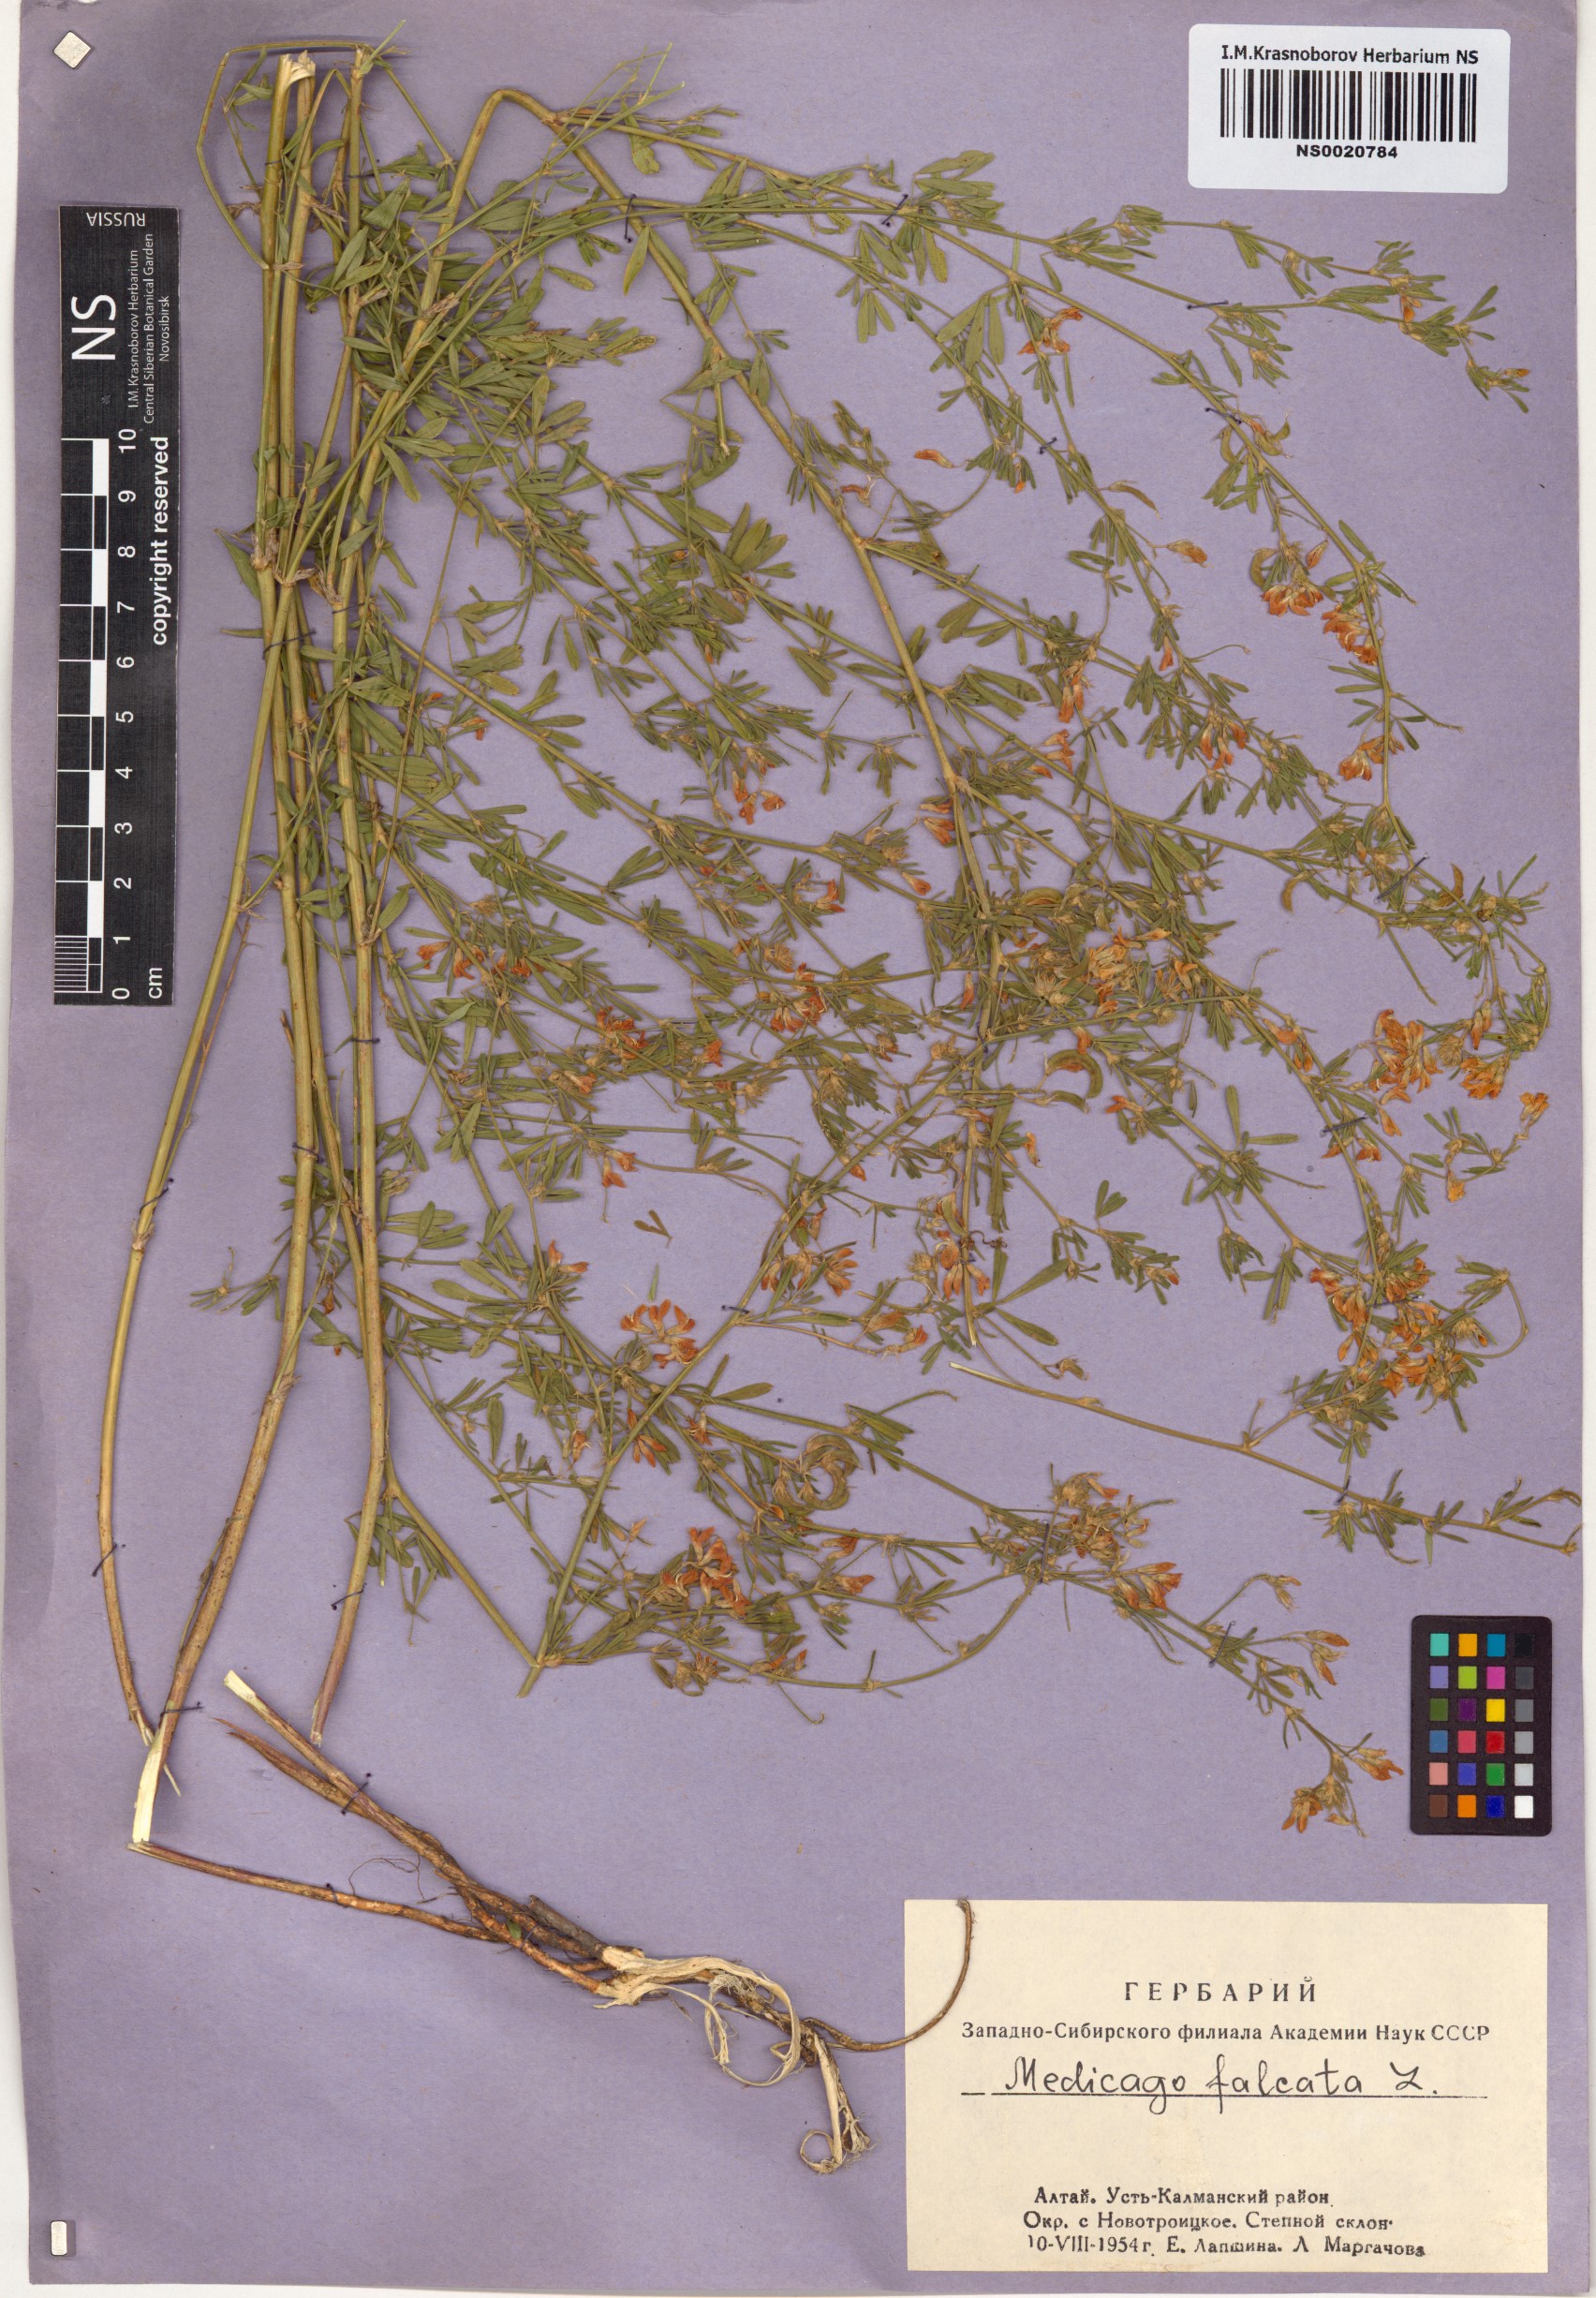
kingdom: Plantae
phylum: Tracheophyta
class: Magnoliopsida
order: Fabales
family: Fabaceae
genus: Medicago
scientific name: Medicago falcata
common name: Sickle medick
